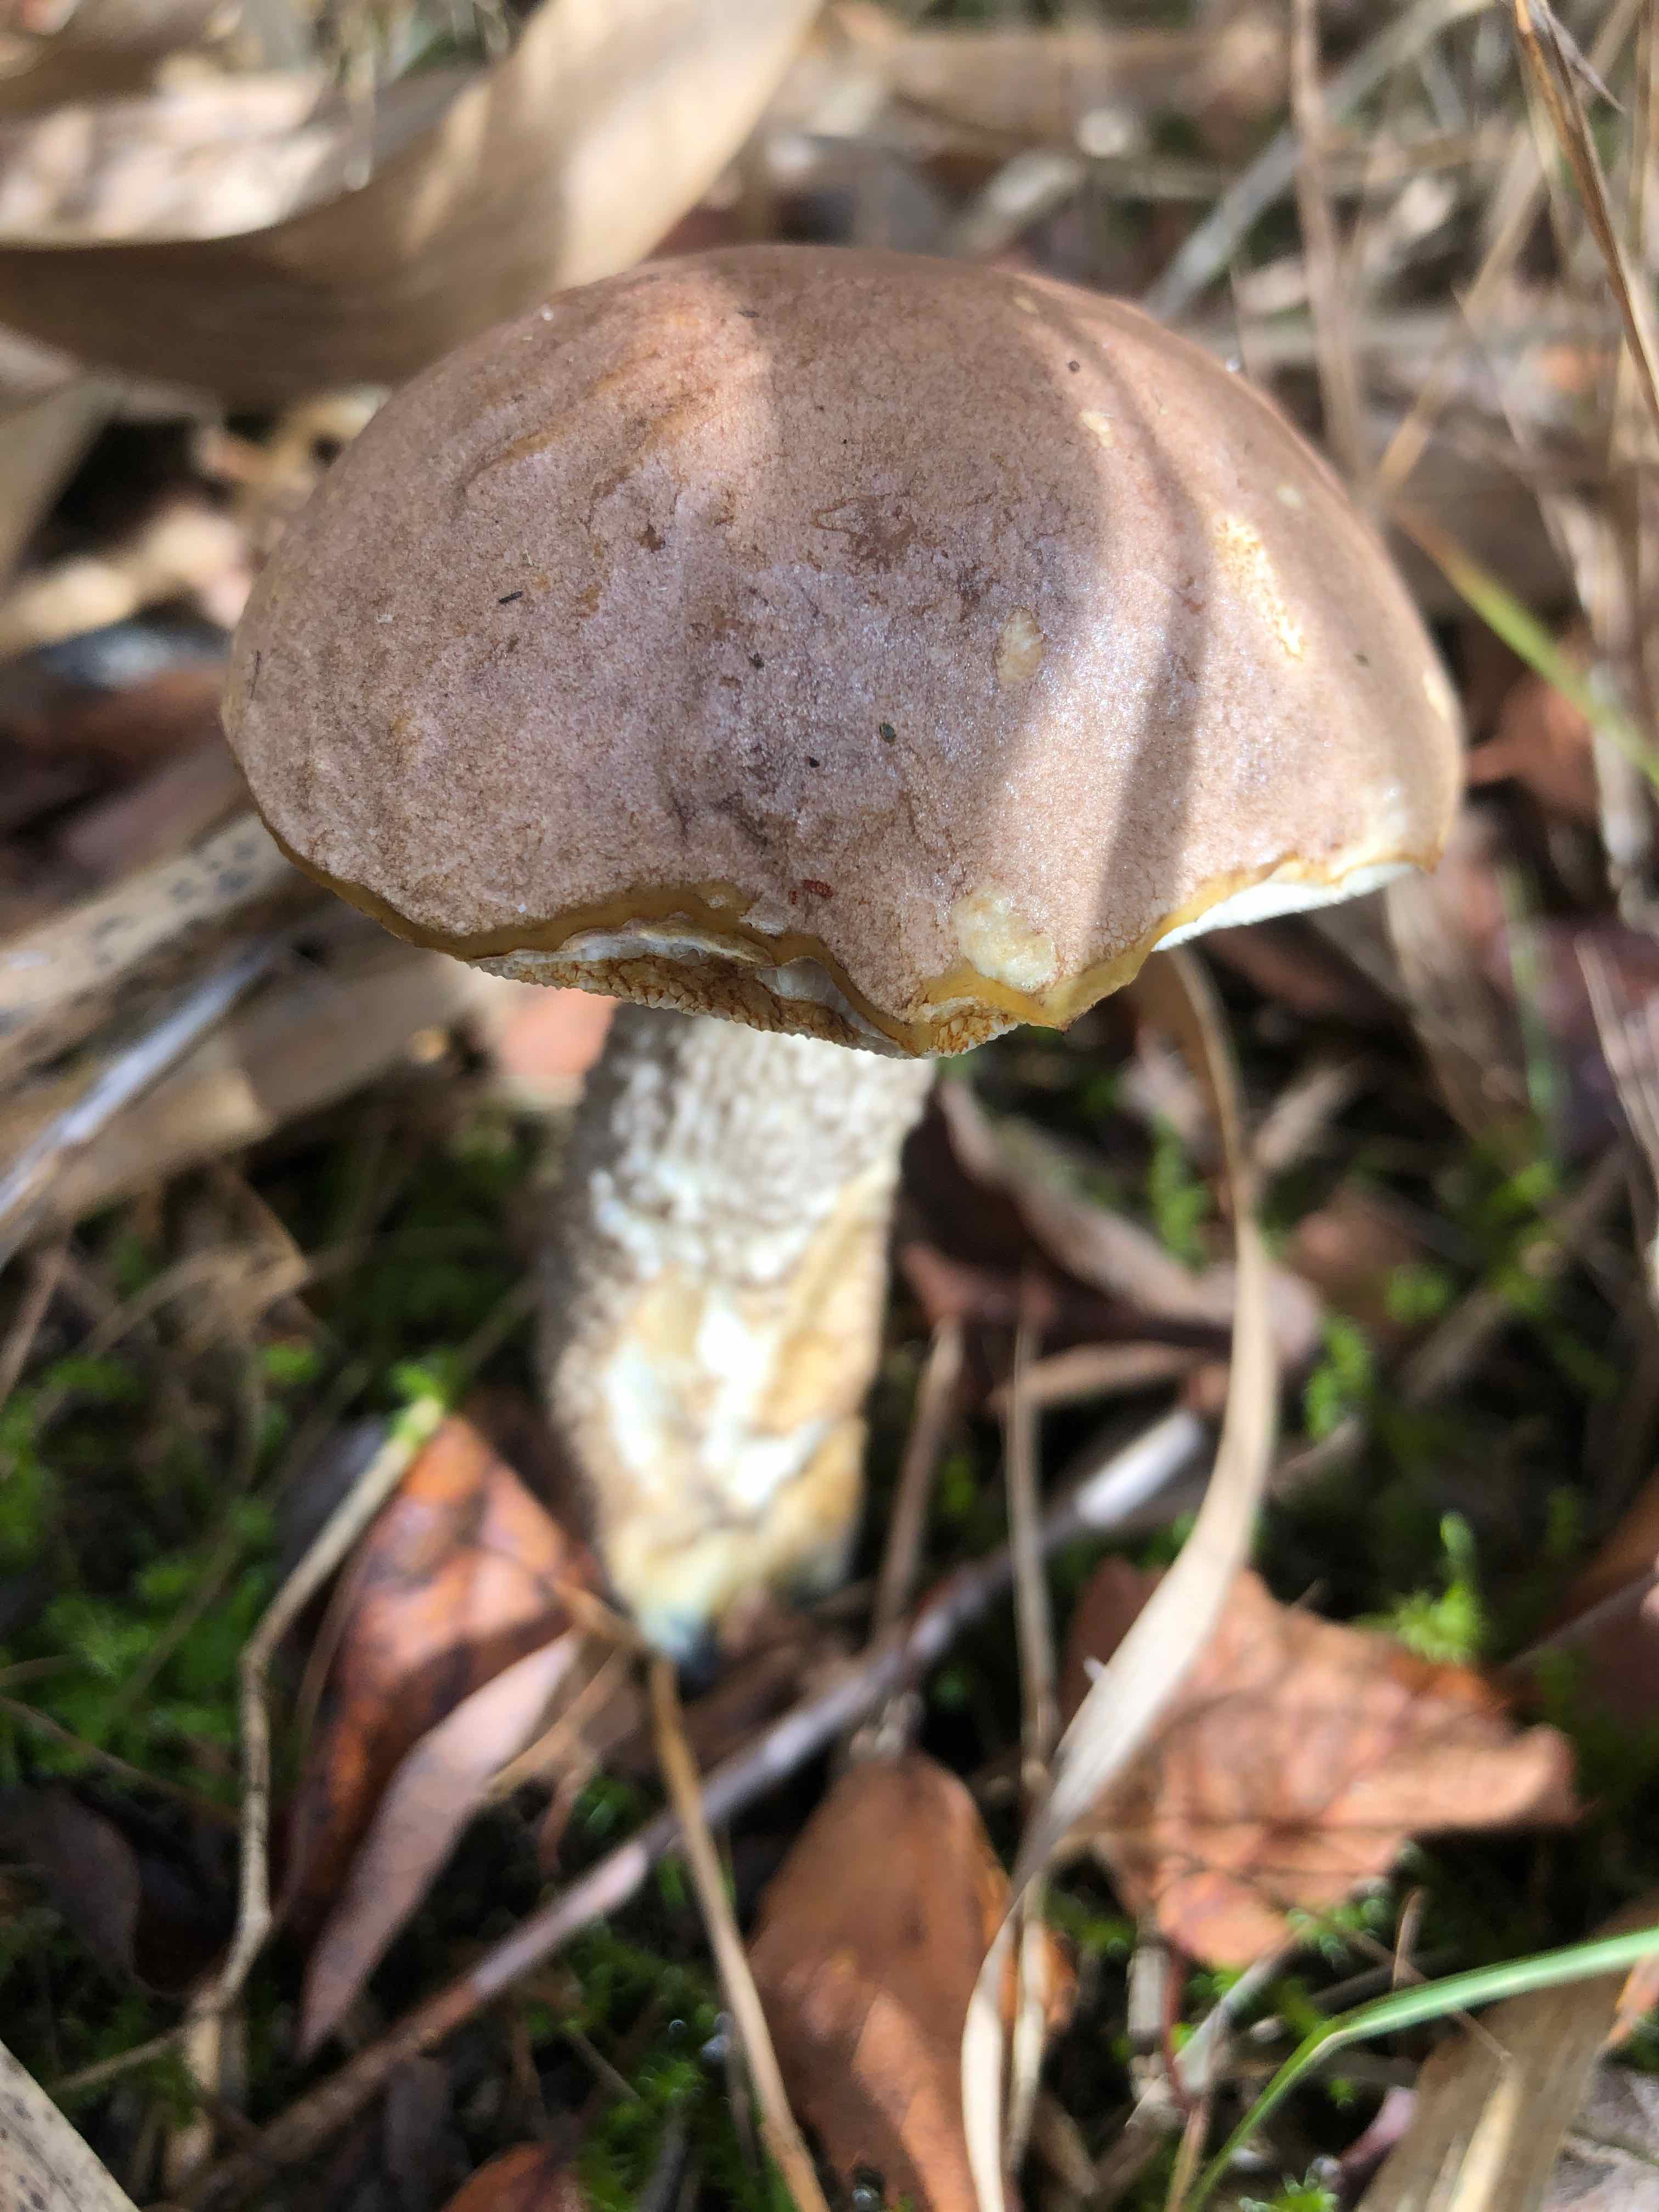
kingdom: Fungi
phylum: Basidiomycota
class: Agaricomycetes
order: Boletales
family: Boletaceae
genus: Leccinum
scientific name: Leccinum
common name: skælrørhat
